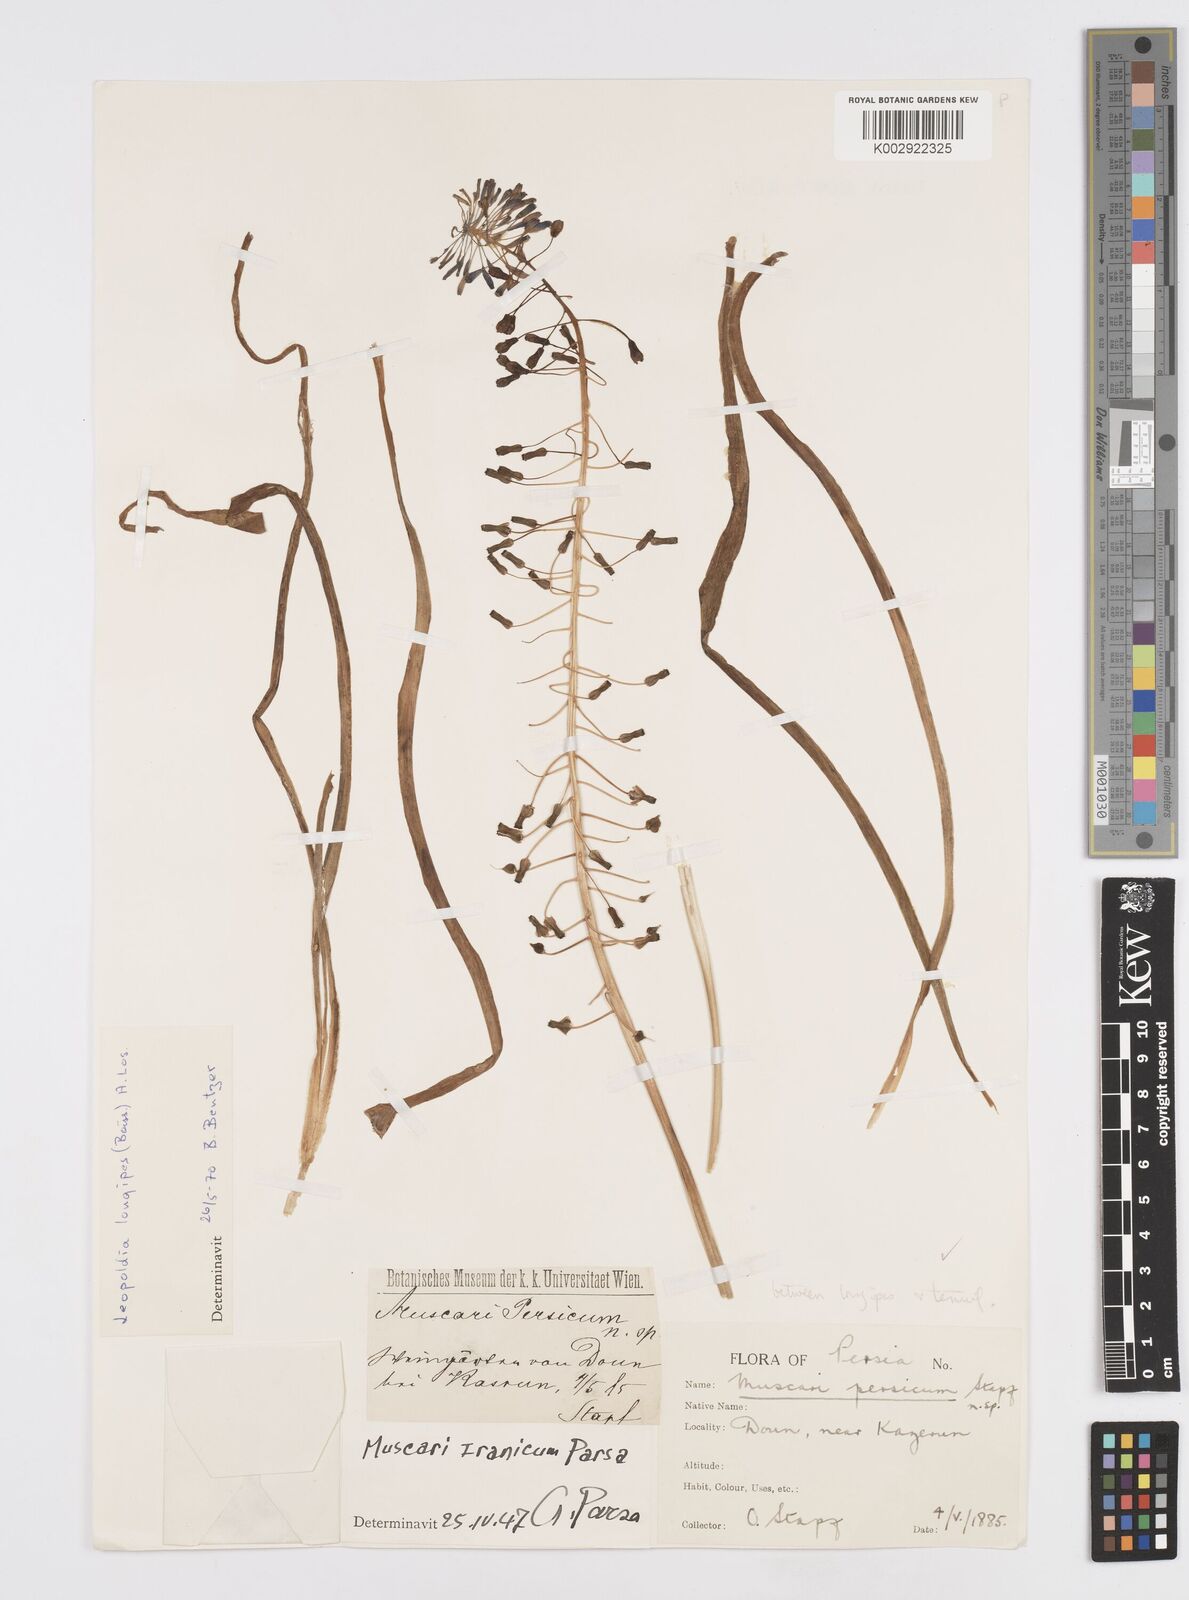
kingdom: Animalia
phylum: Mollusca
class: Cephalopoda
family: Neocomitidae
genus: Leopoldia
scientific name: Leopoldia
